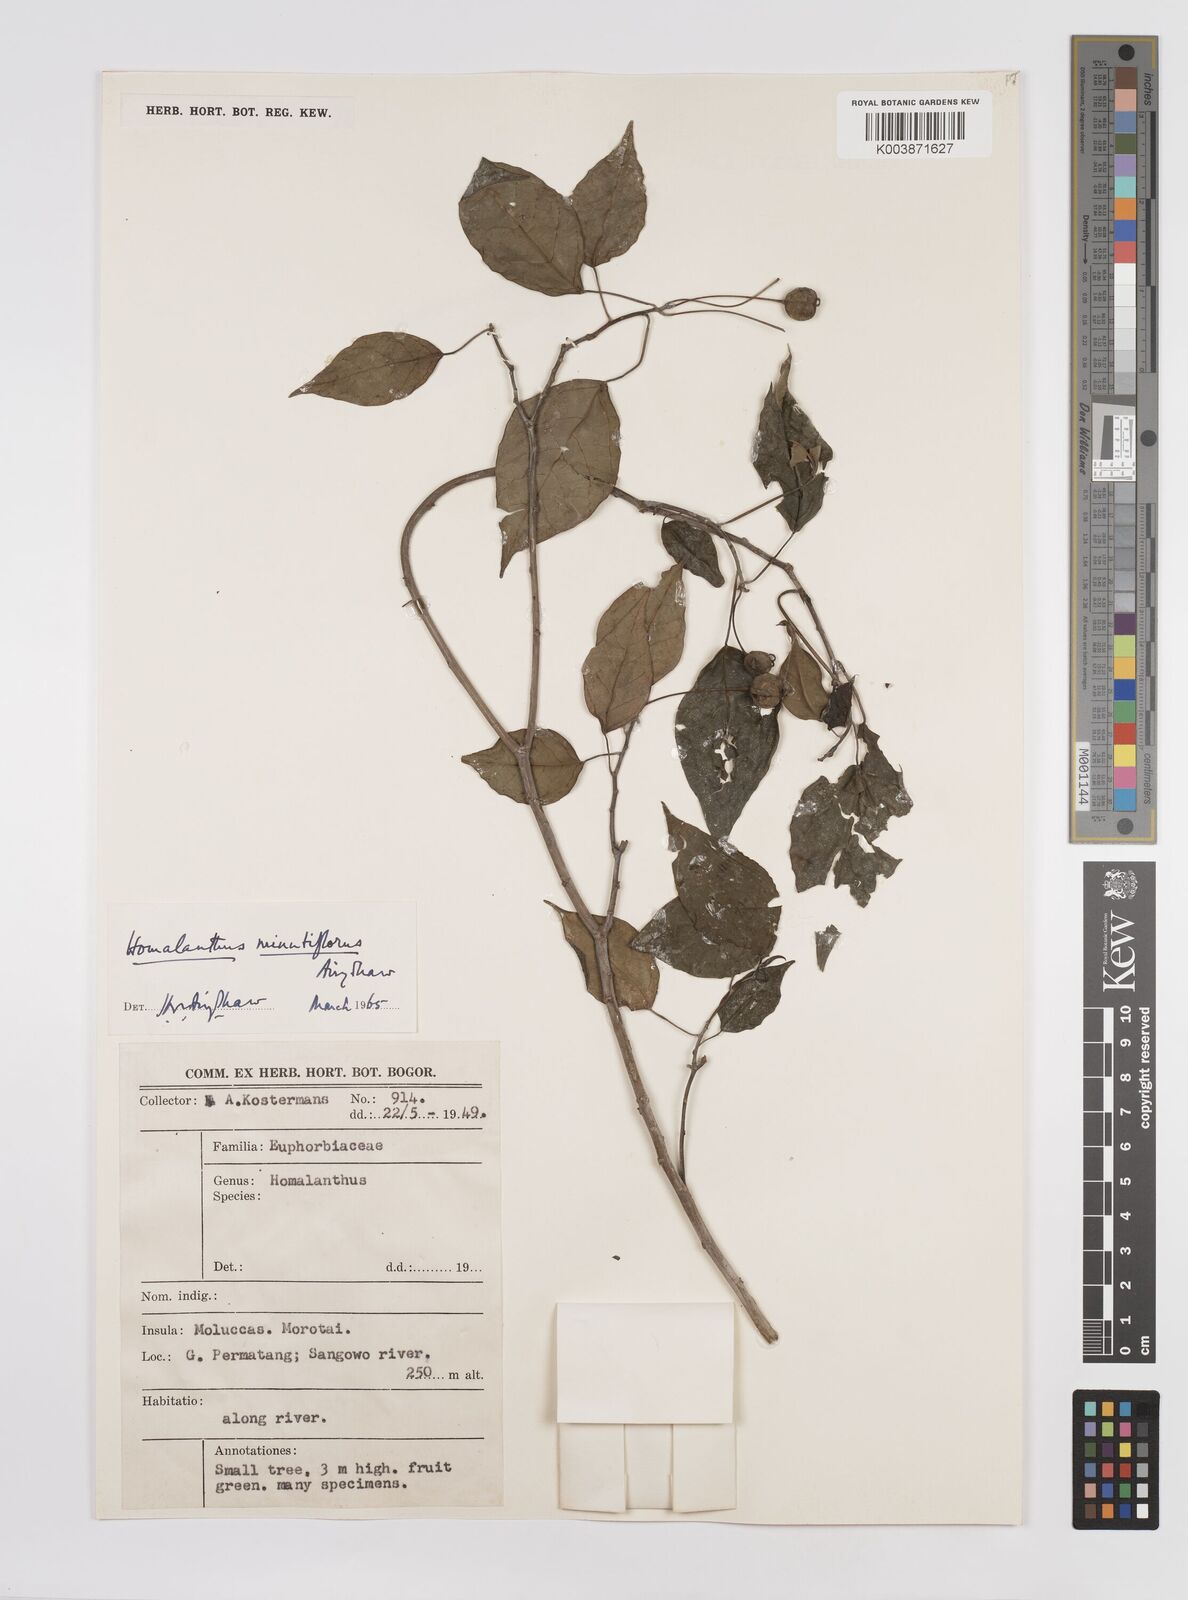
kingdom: Plantae
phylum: Tracheophyta
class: Magnoliopsida
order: Malpighiales
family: Euphorbiaceae
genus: Homalanthus
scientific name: Homalanthus arfakiensis
